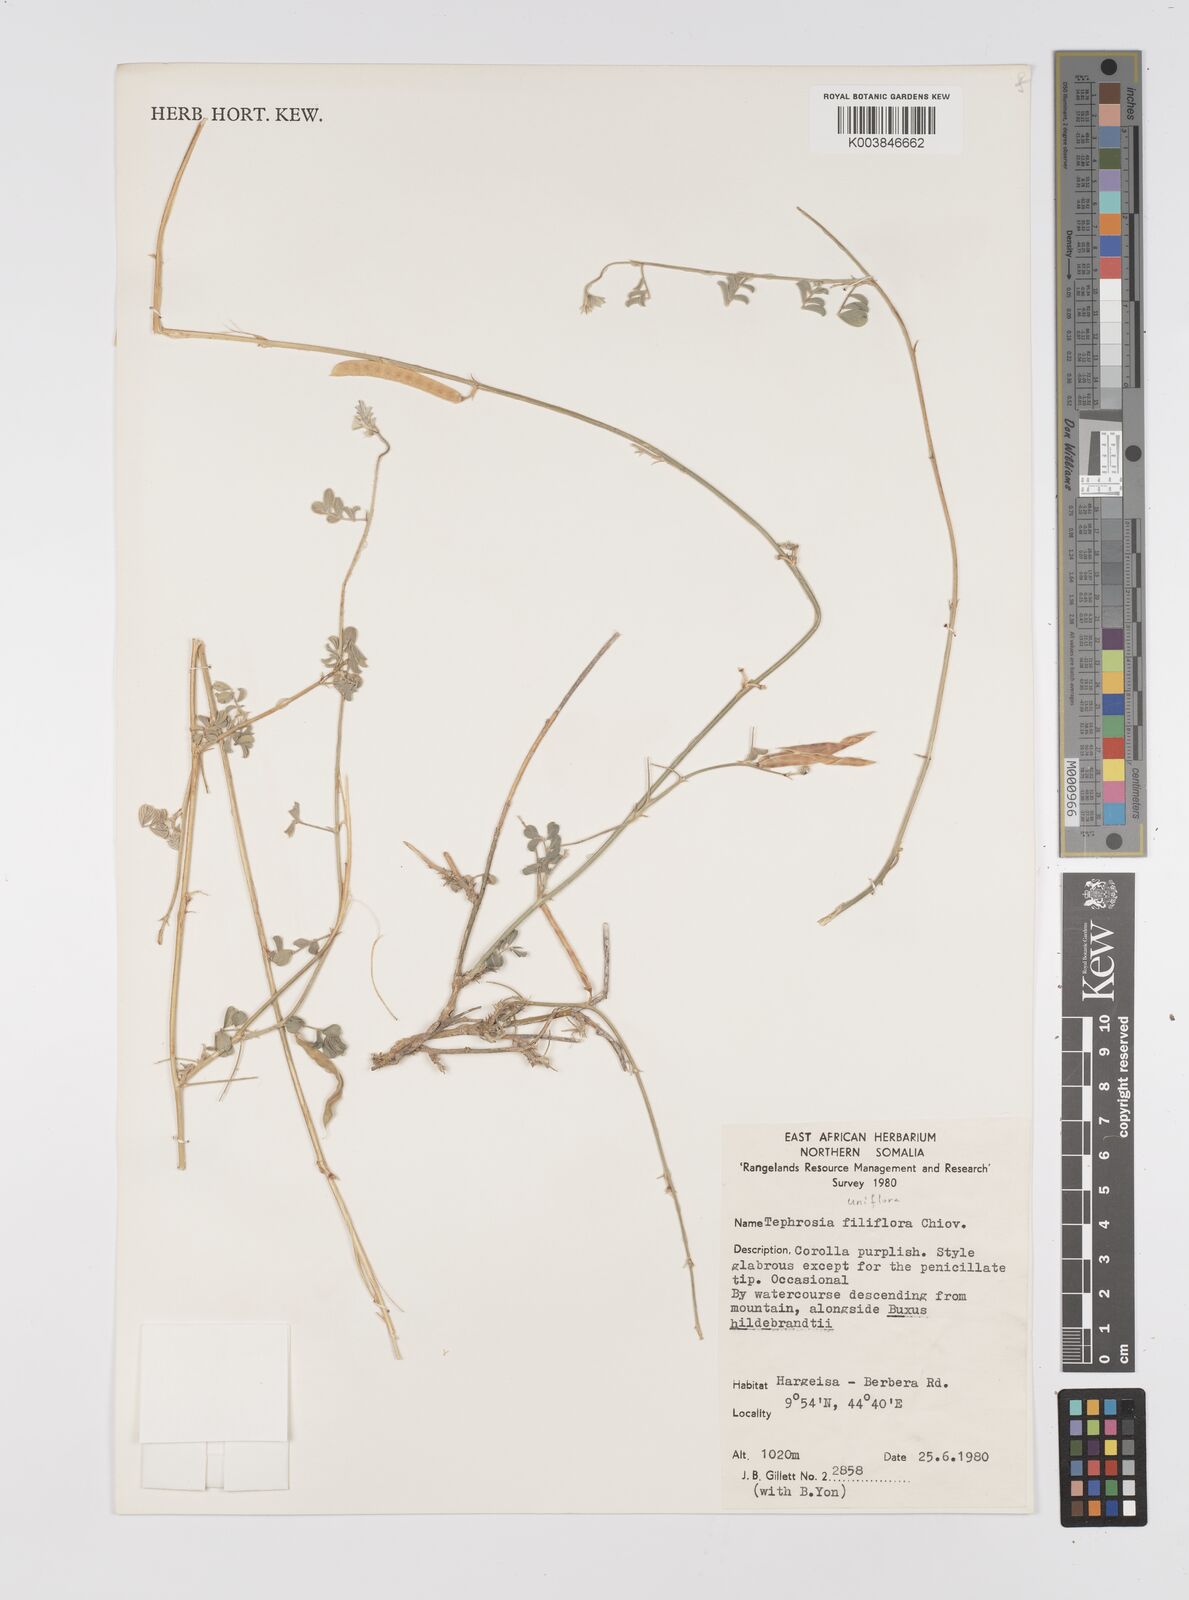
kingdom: Plantae
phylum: Tracheophyta
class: Magnoliopsida
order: Fabales
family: Fabaceae
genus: Tephrosia
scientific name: Tephrosia uniflora
